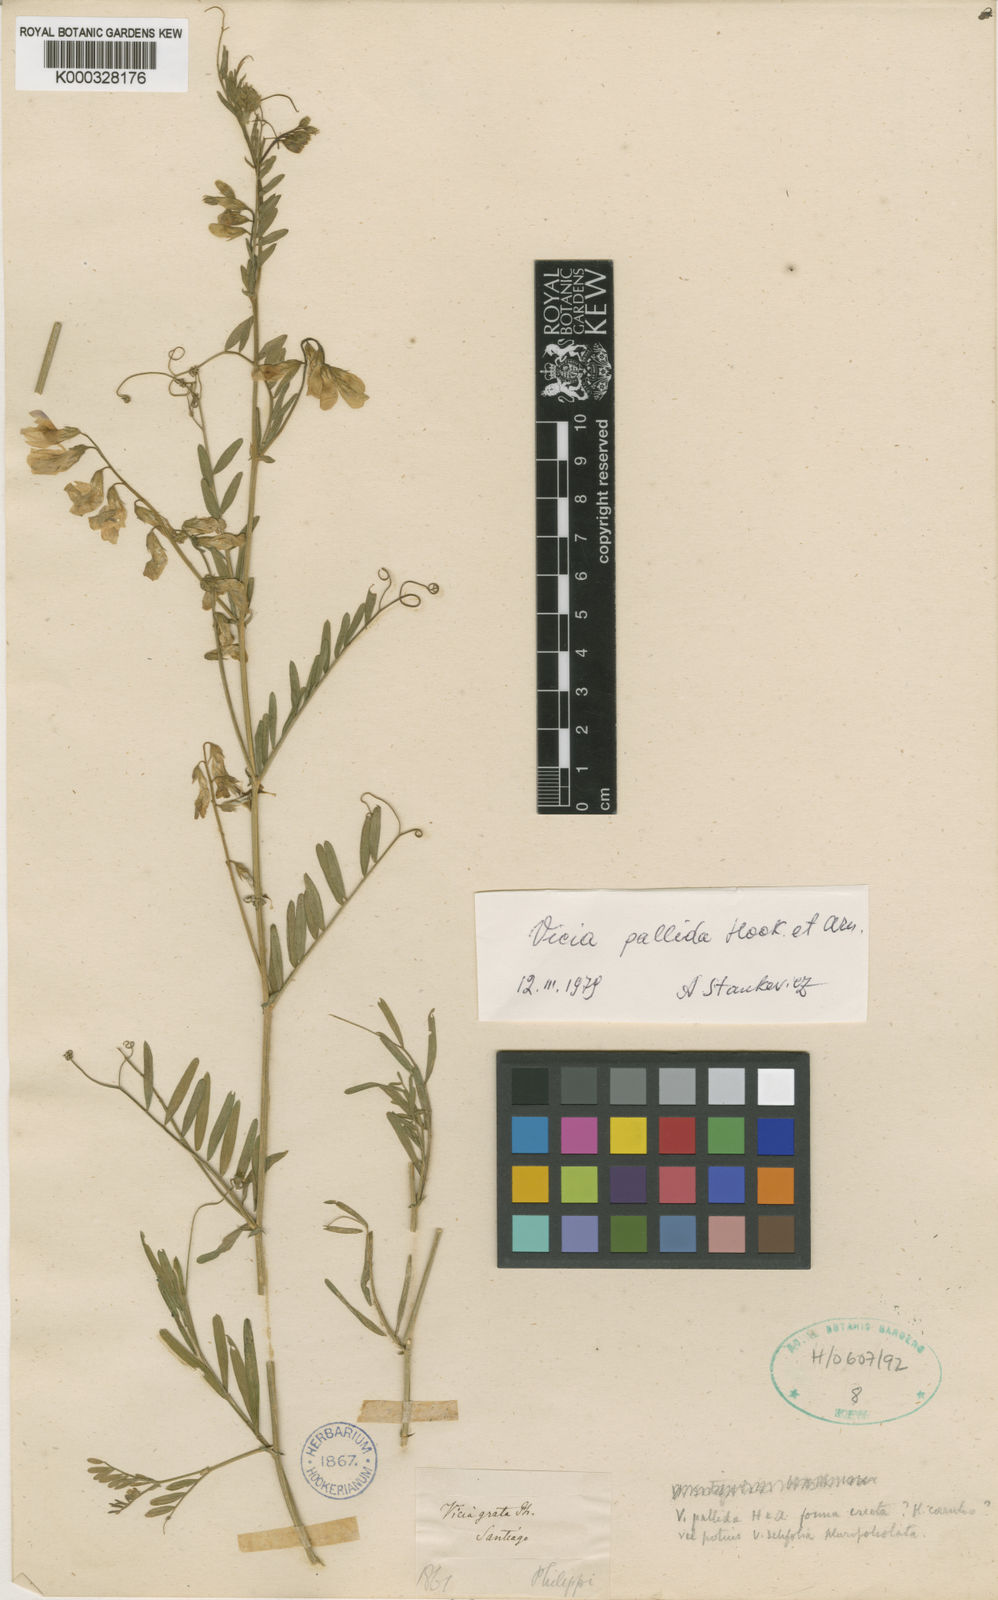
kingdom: Plantae
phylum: Tracheophyta
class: Magnoliopsida
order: Fabales
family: Fabaceae
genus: Vicia
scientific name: Vicia pallida
